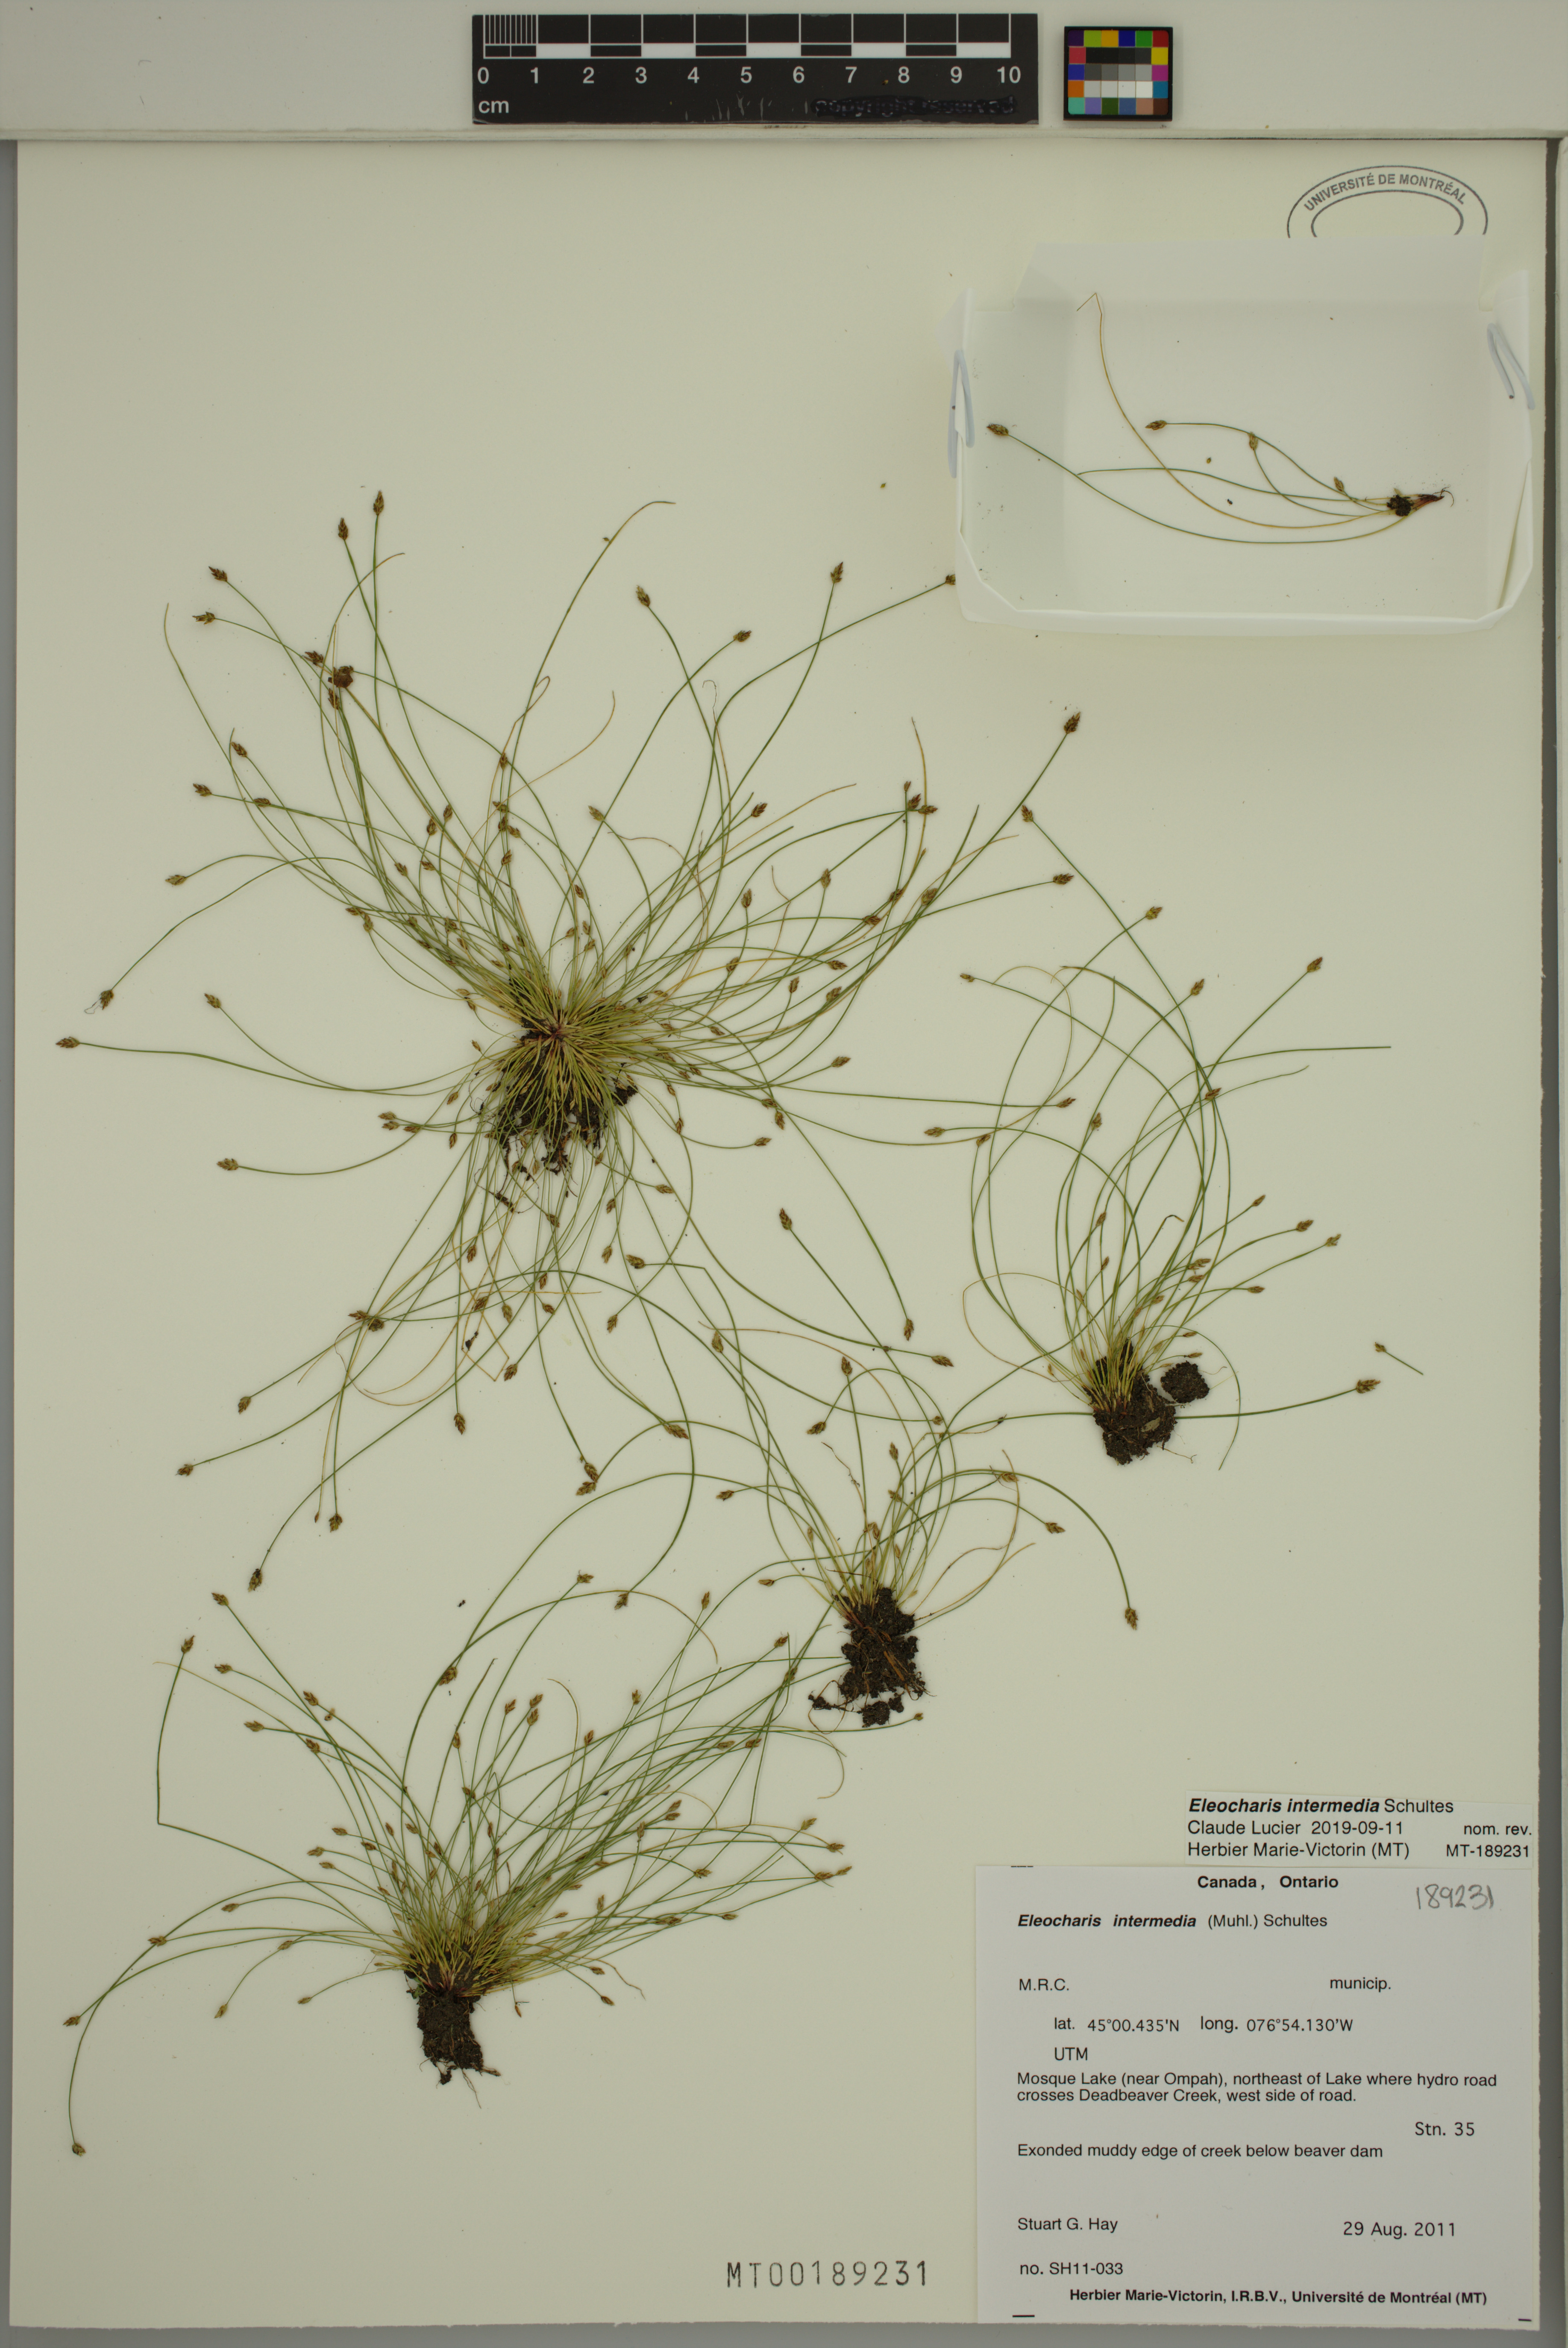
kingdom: Plantae
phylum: Tracheophyta
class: Liliopsida
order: Poales
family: Cyperaceae
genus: Eleocharis
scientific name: Eleocharis intermedia
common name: Intermediate spikerush
